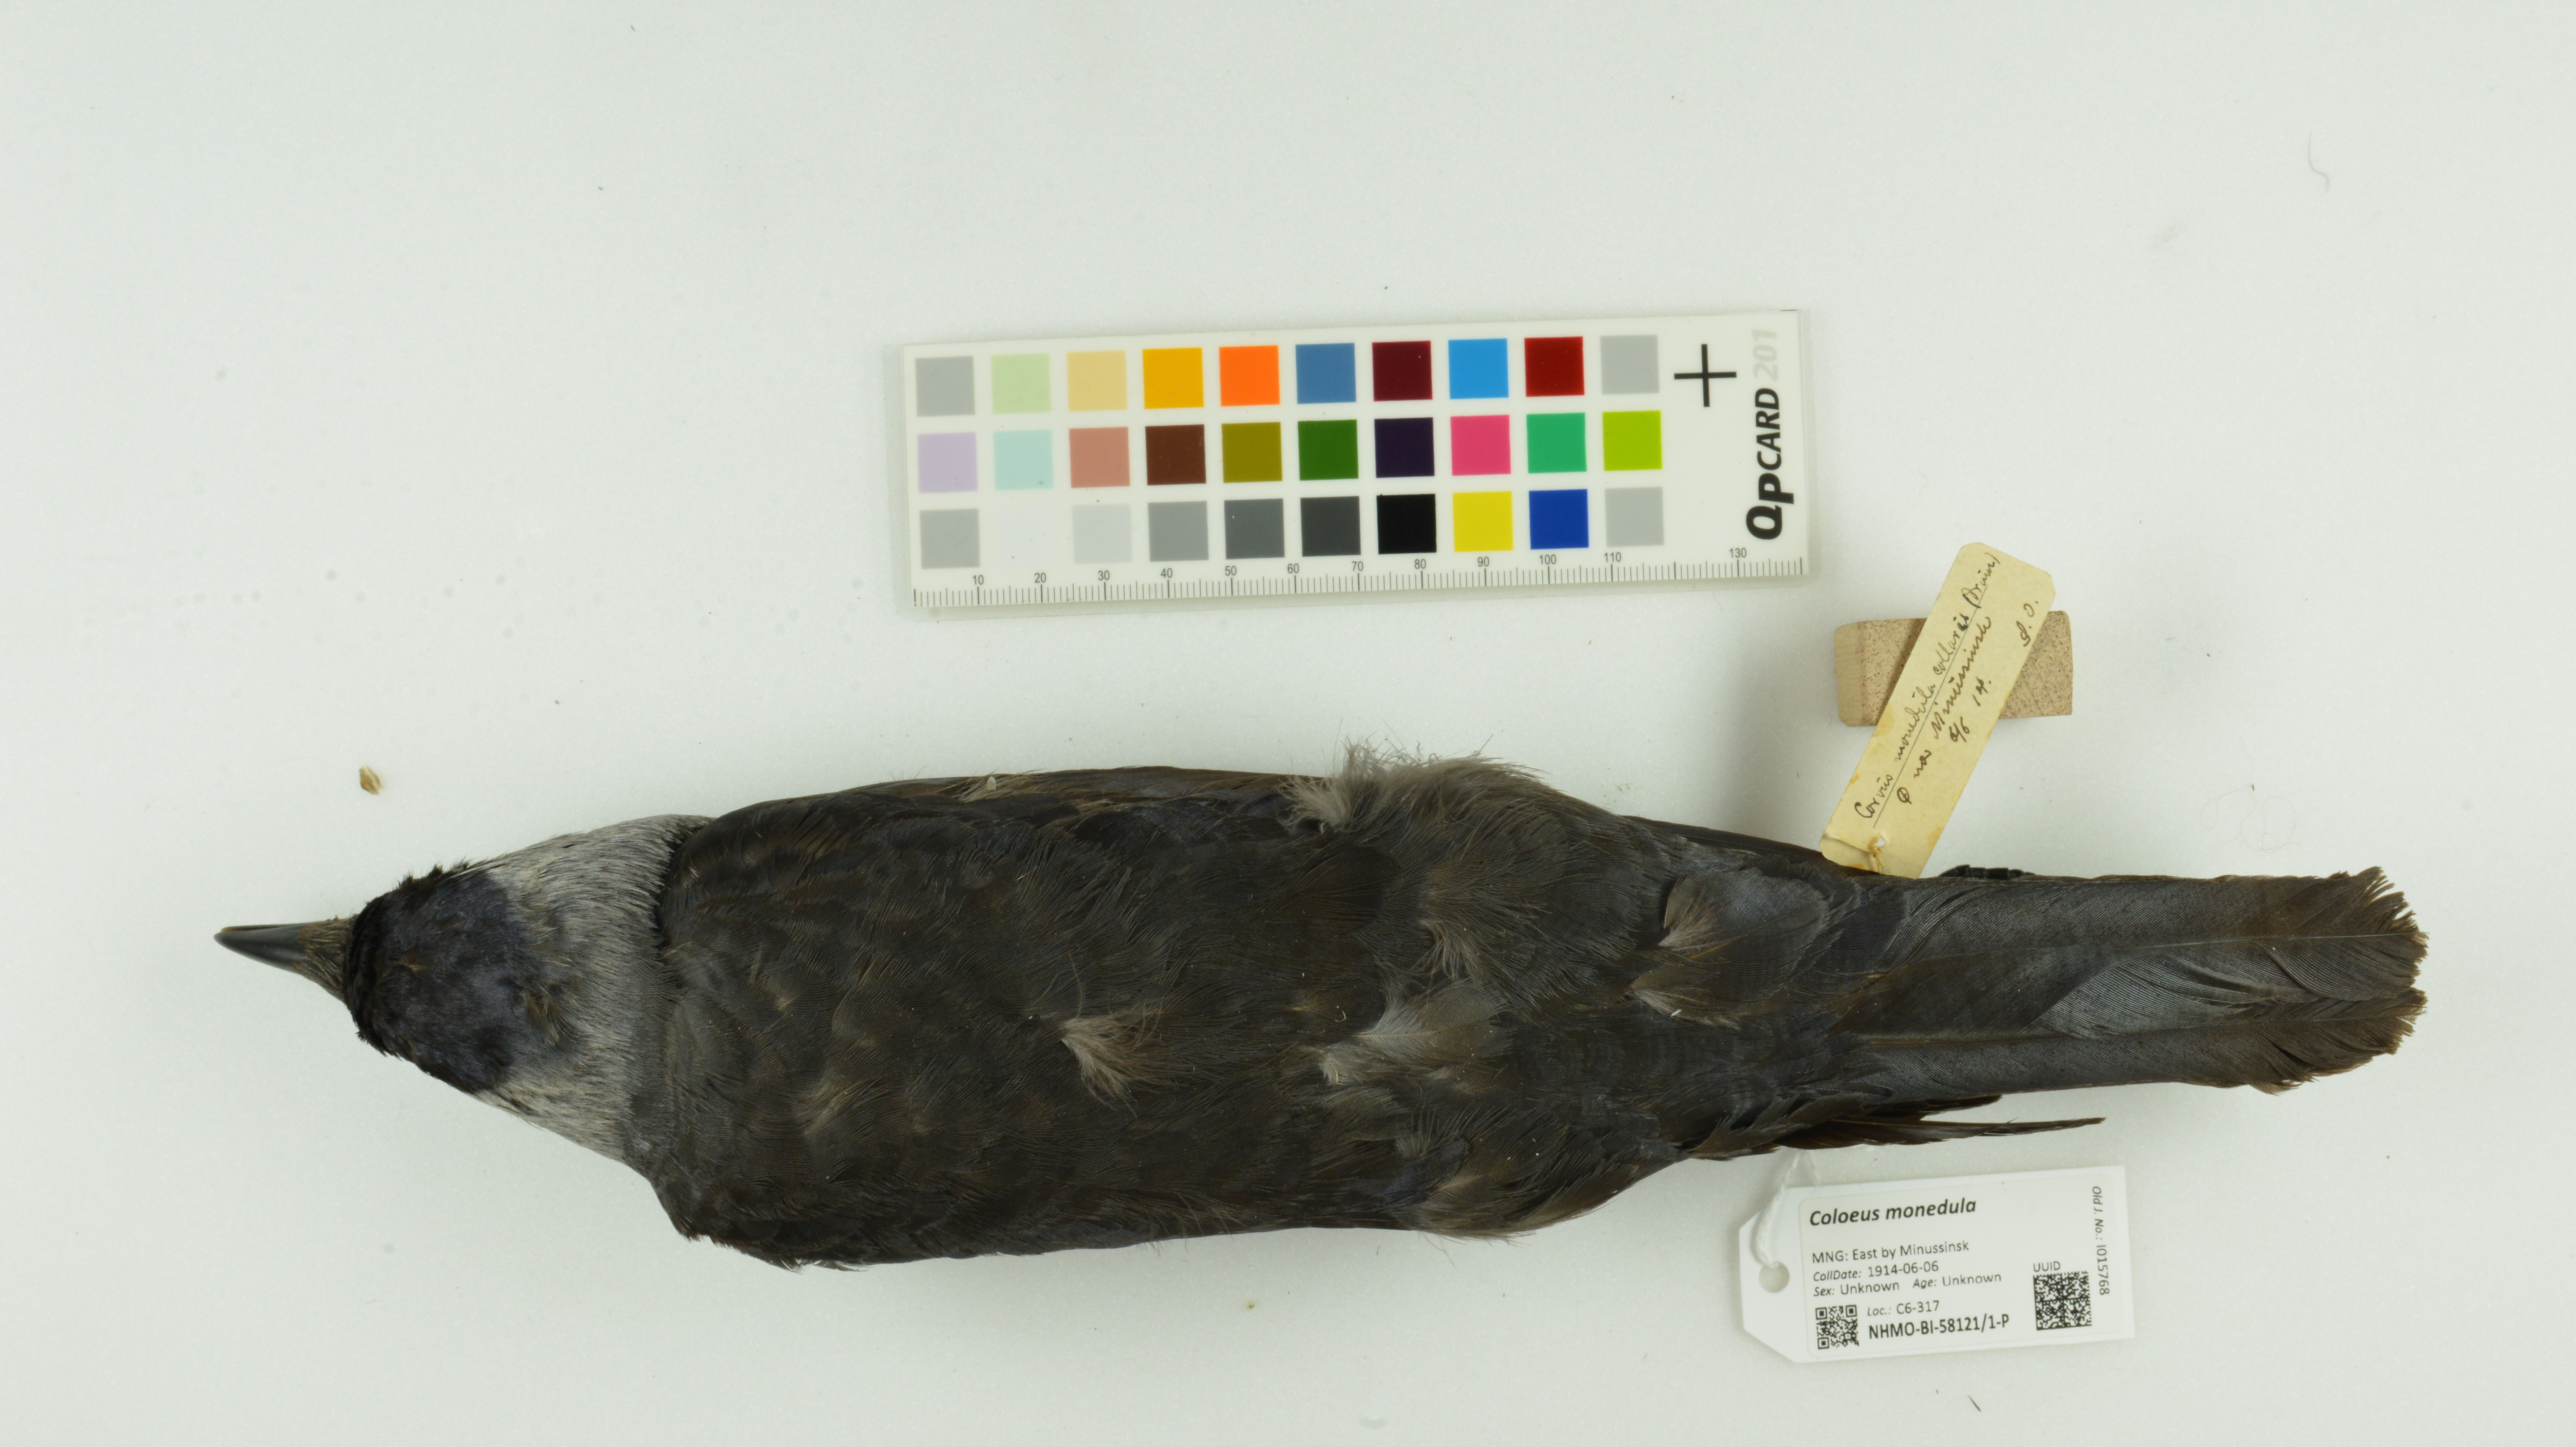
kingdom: Animalia
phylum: Chordata
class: Aves
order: Passeriformes
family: Corvidae
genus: Coloeus
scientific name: Coloeus monedula
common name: Western jackdaw
